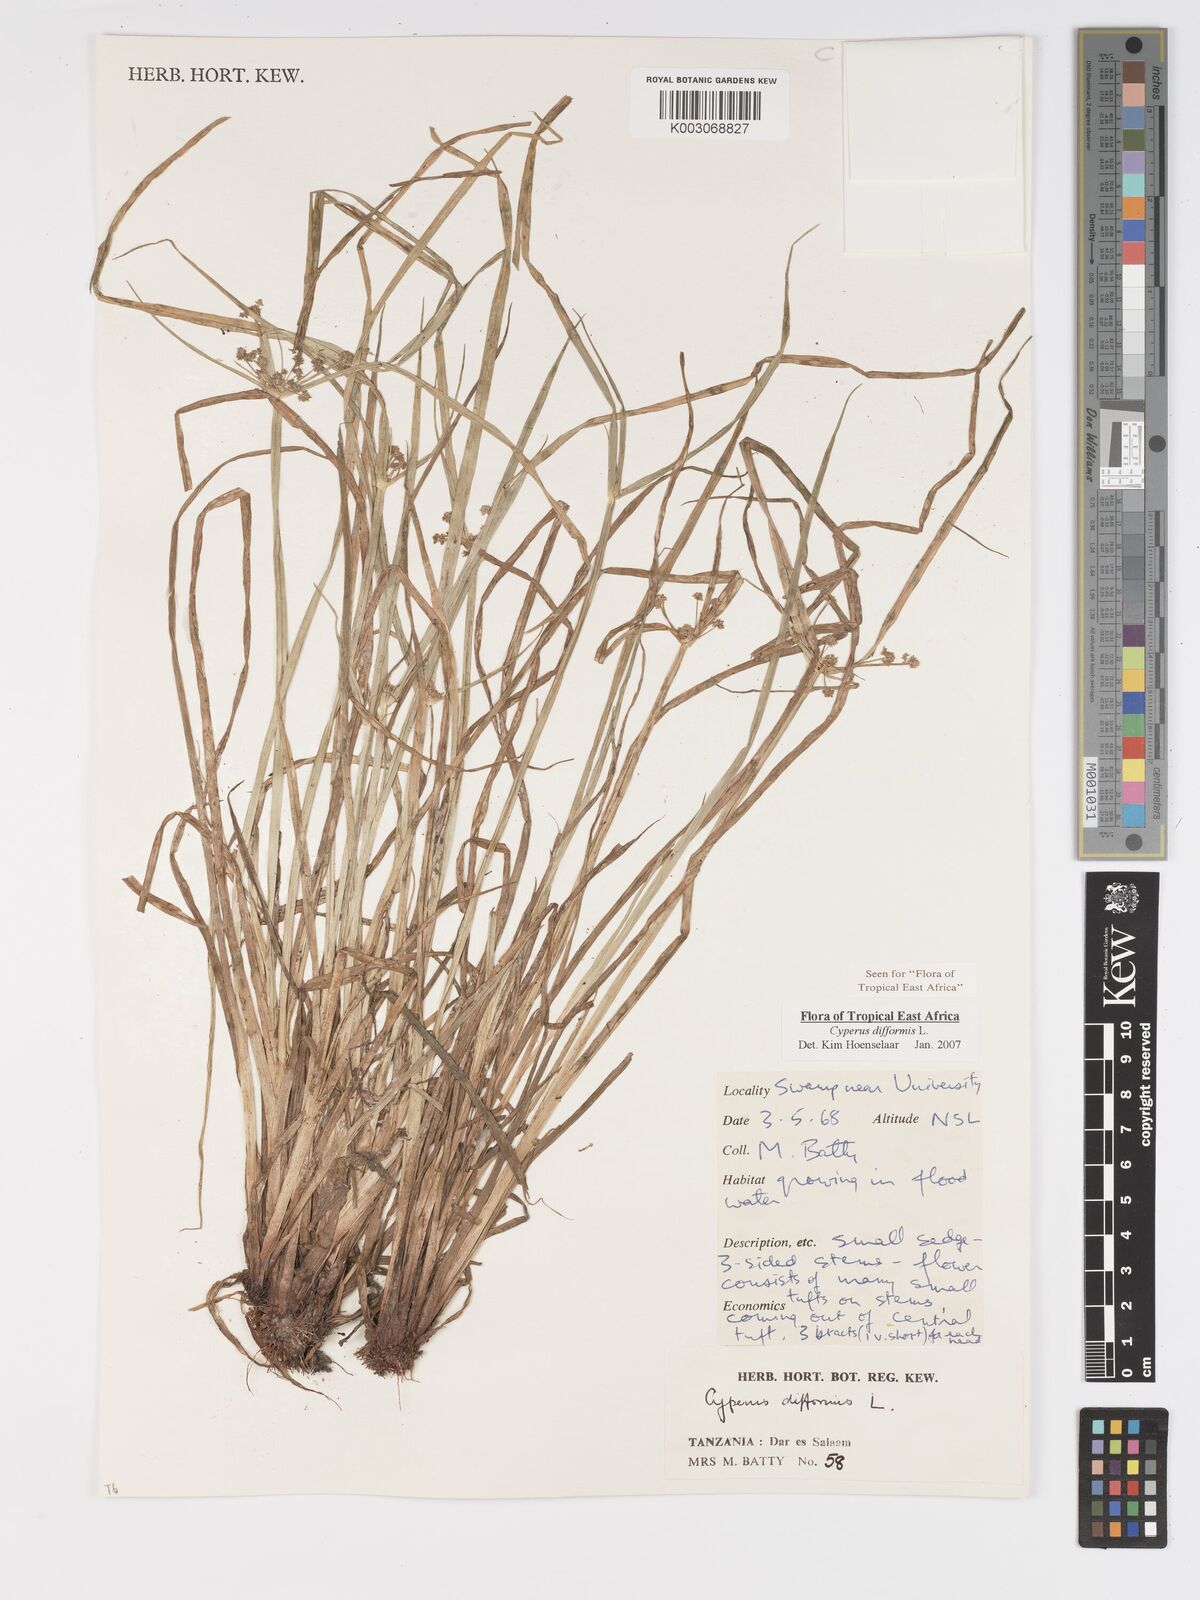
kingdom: Plantae
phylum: Tracheophyta
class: Liliopsida
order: Poales
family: Cyperaceae
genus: Cyperus
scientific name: Cyperus difformis
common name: Variable flatsedge
